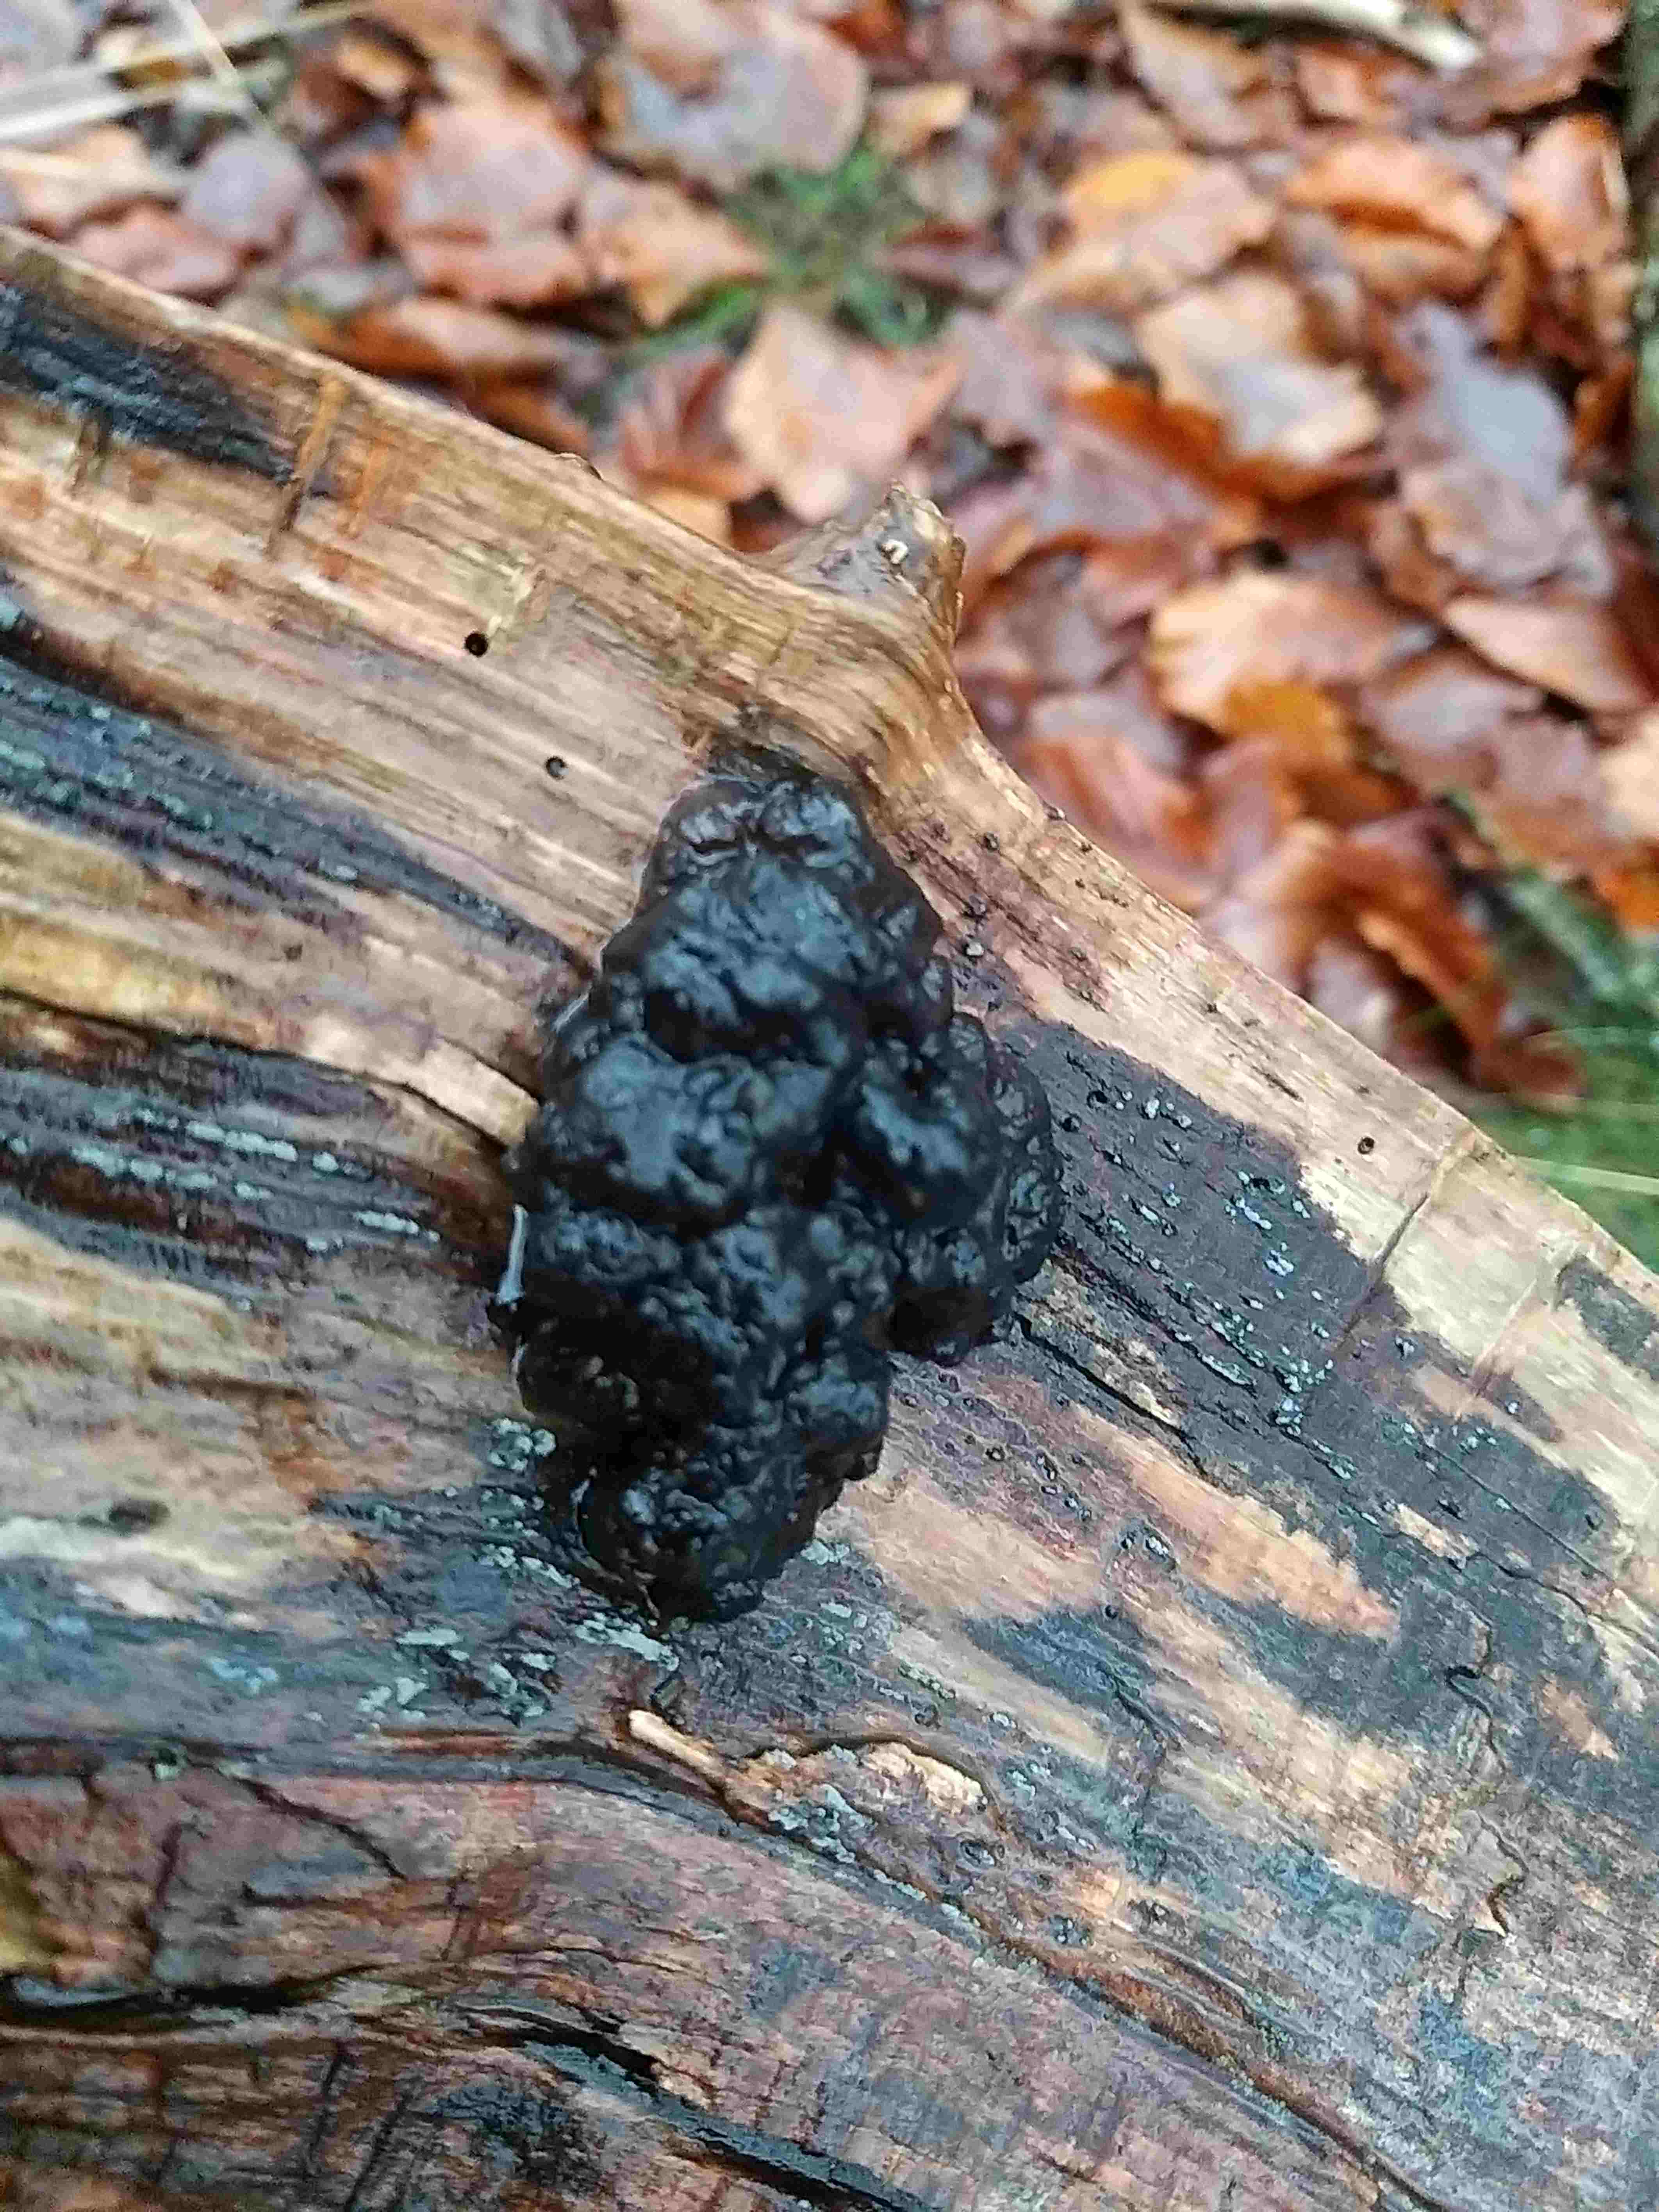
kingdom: Fungi
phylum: Basidiomycota
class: Agaricomycetes
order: Auriculariales
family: Auriculariaceae
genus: Exidia
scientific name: Exidia nigricans
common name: almindelig bævretop
